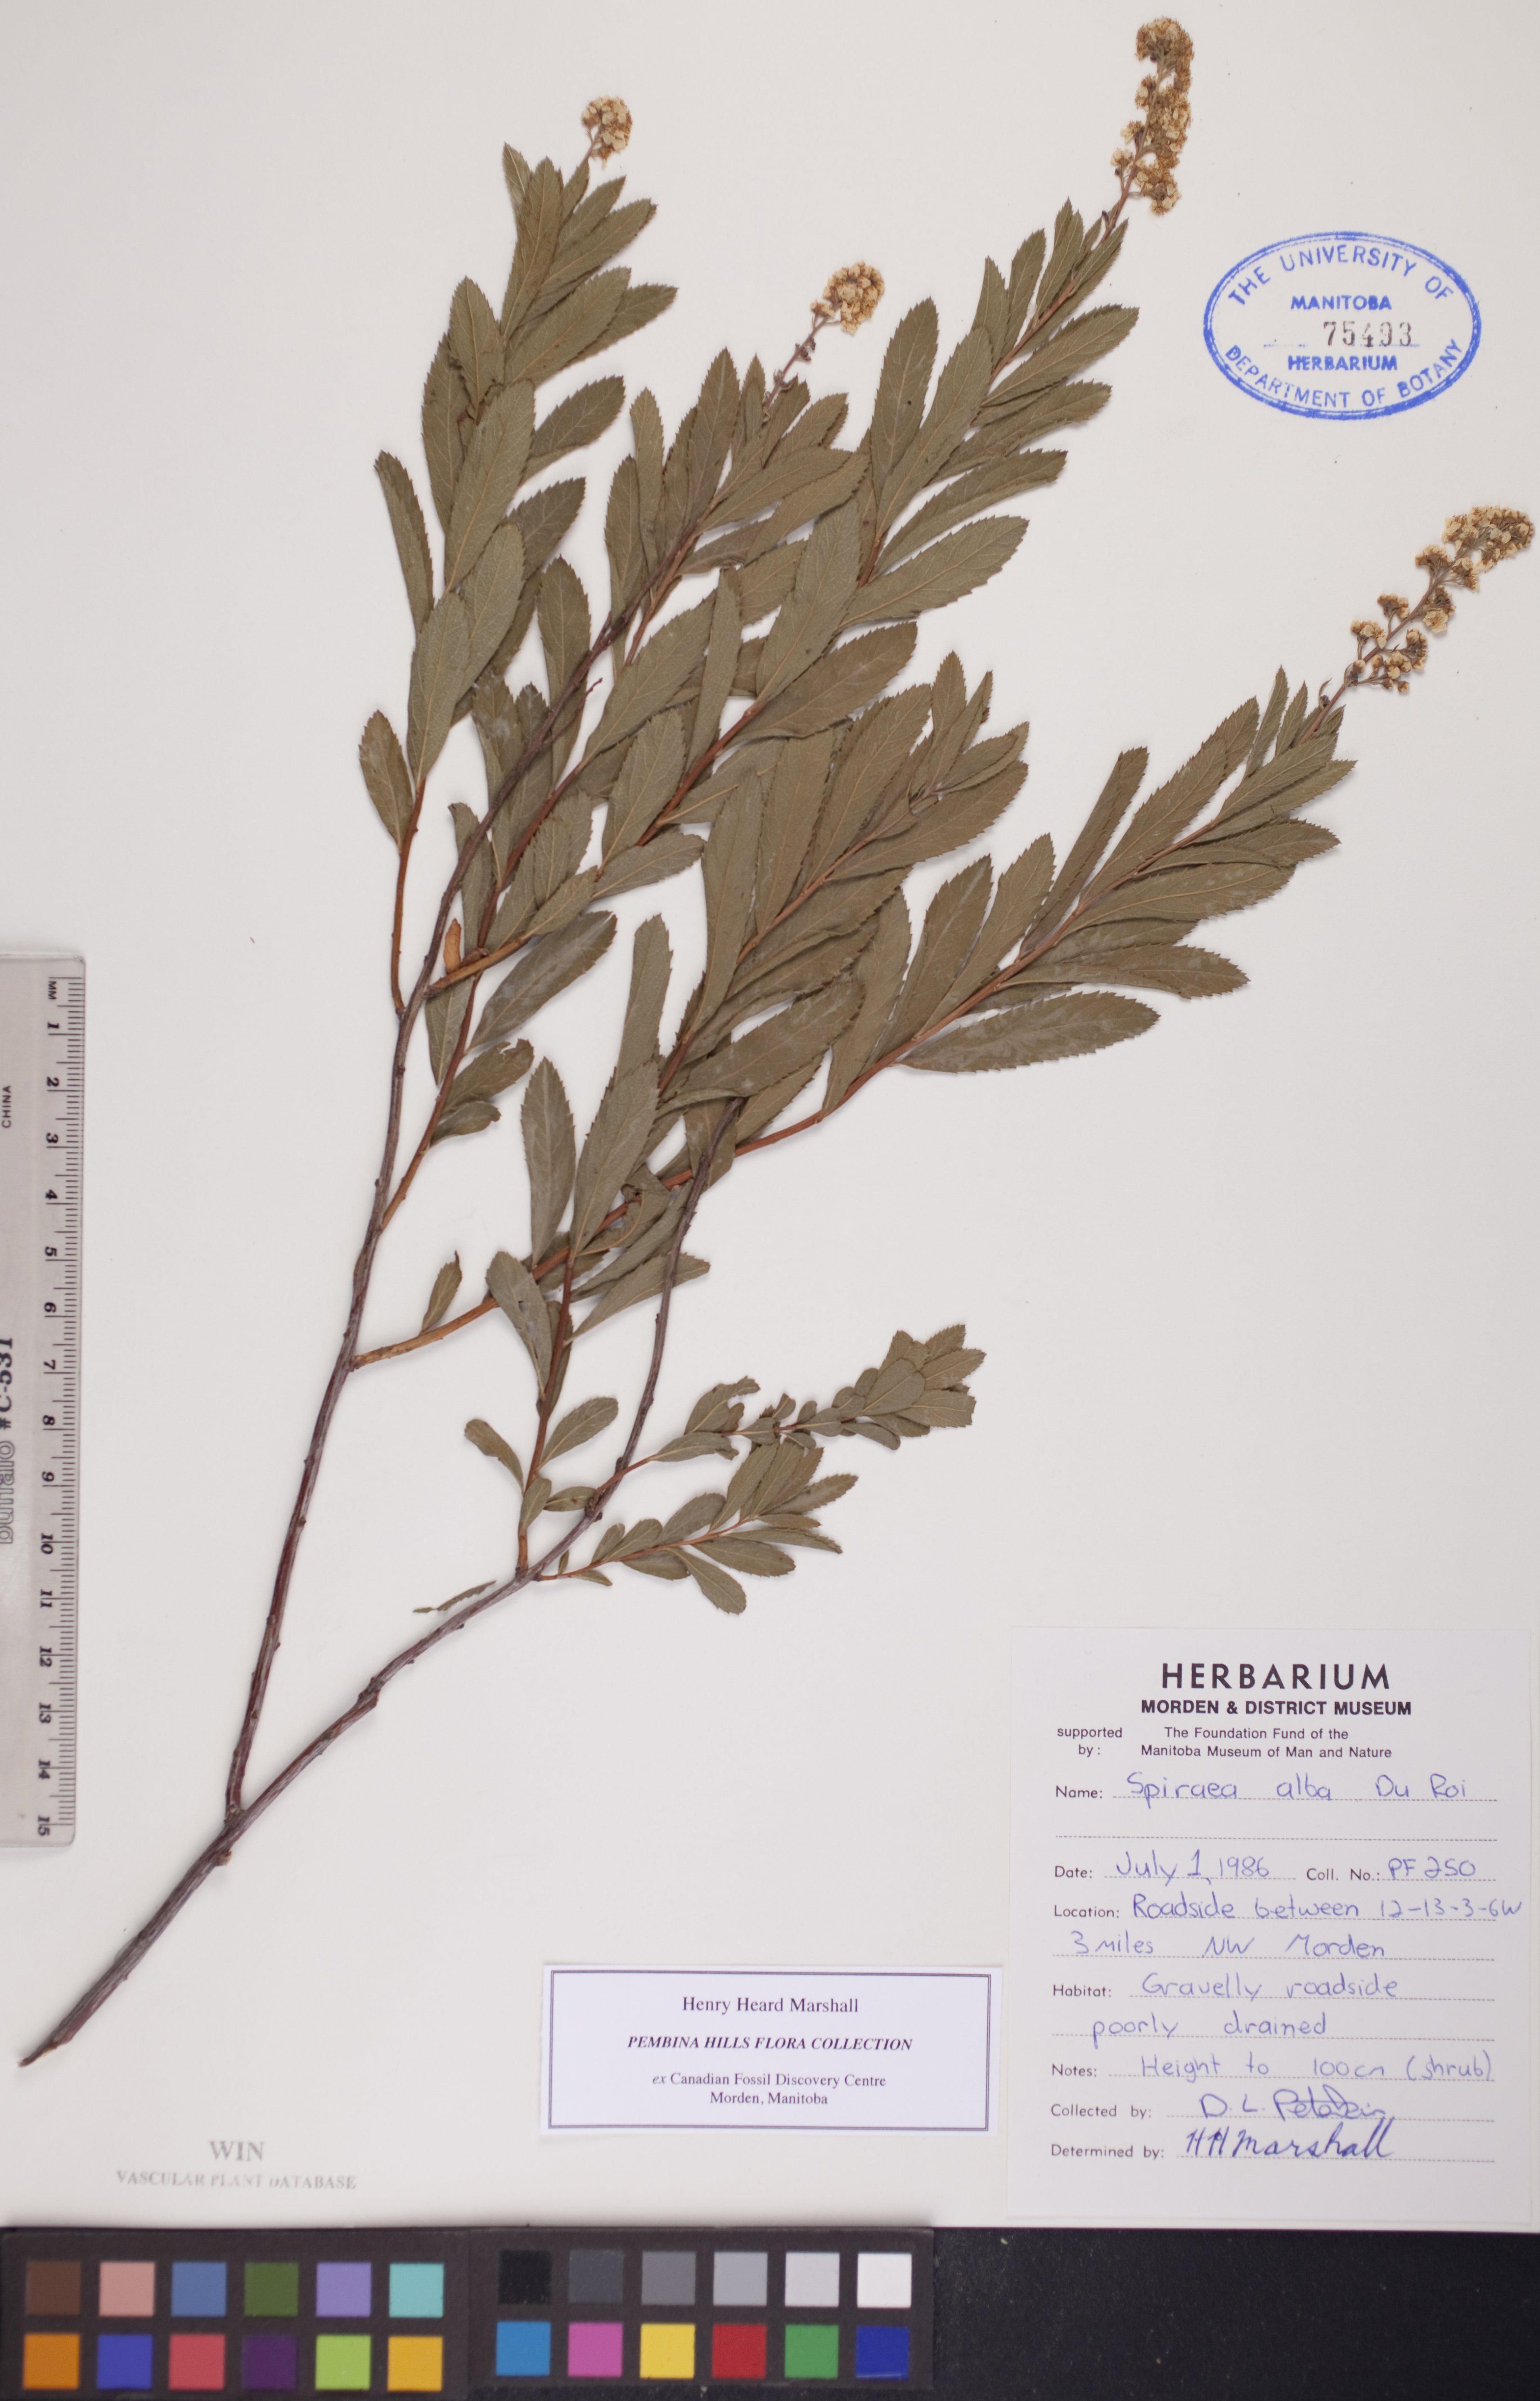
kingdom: Plantae
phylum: Tracheophyta
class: Magnoliopsida
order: Rosales
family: Rosaceae
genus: Spiraea
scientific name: Spiraea alba
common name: Pale bridewort
